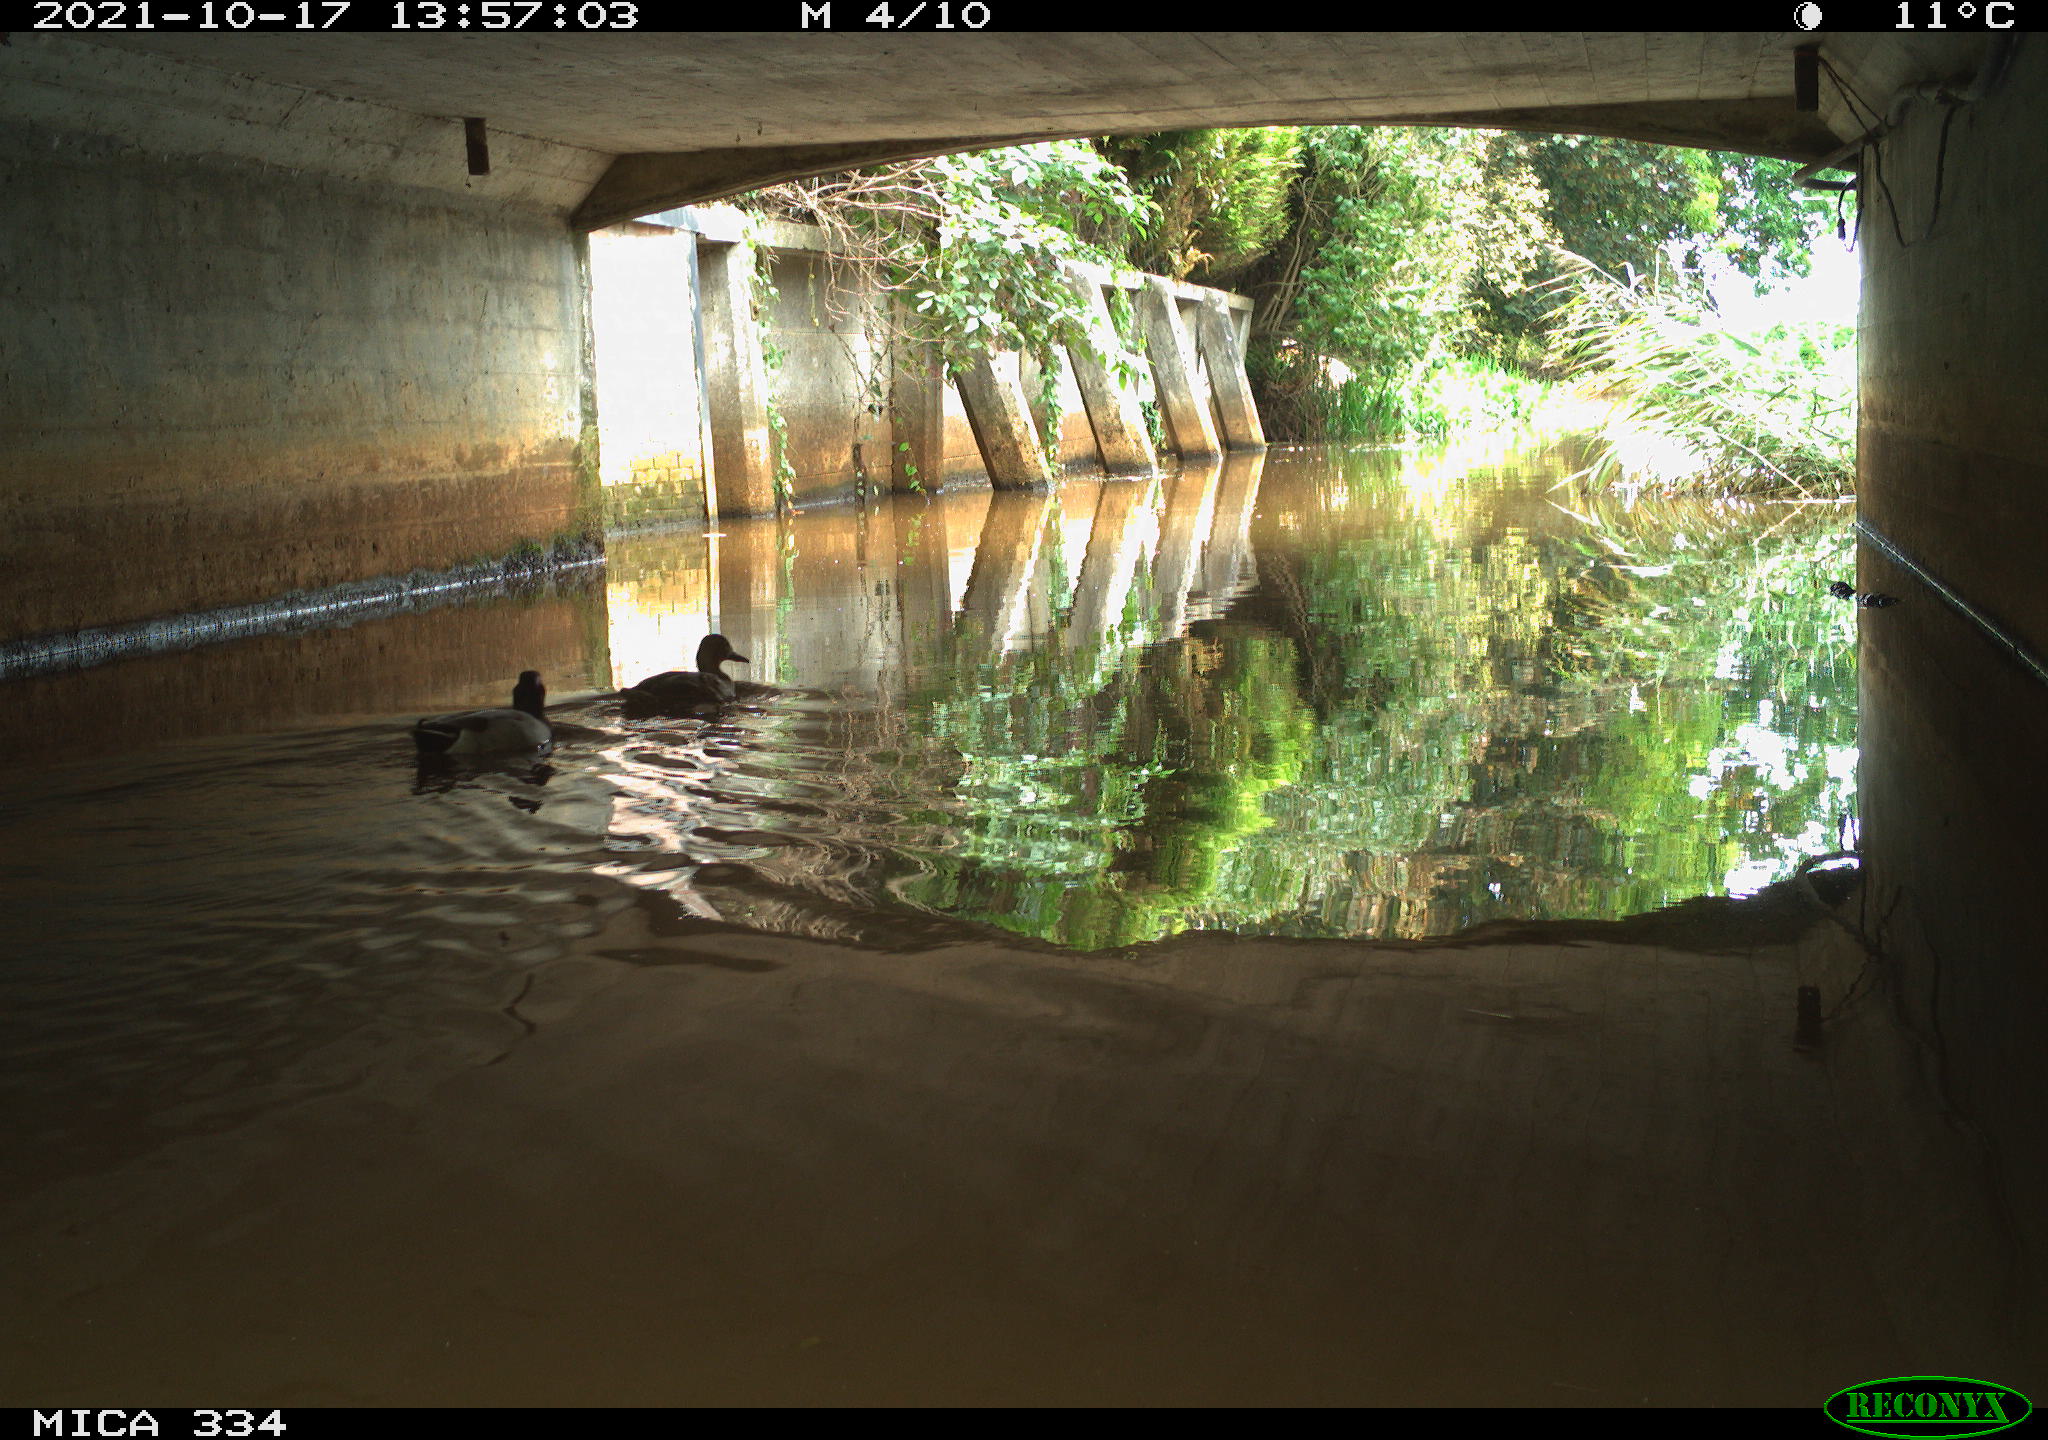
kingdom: Animalia
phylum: Chordata
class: Aves
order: Anseriformes
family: Anatidae
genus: Anas
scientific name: Anas platyrhynchos
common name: Mallard
